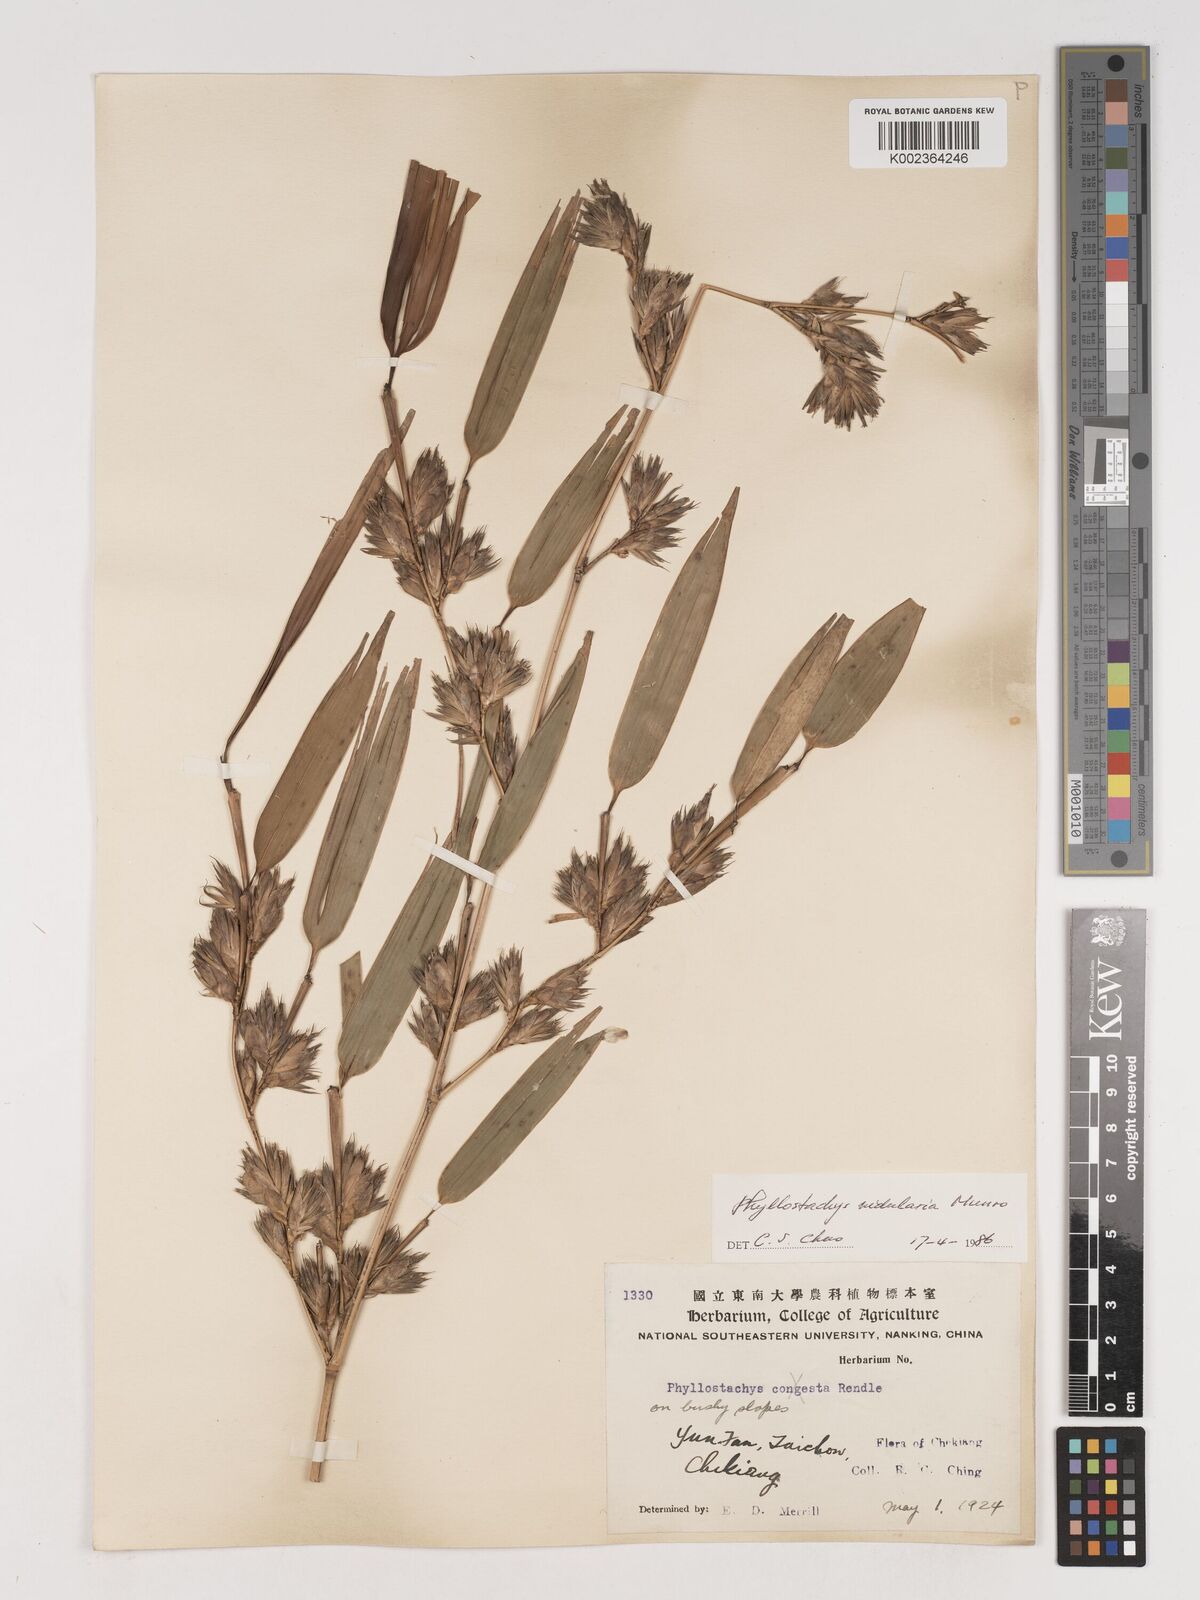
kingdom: Plantae
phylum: Tracheophyta
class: Liliopsida
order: Poales
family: Poaceae
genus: Phyllostachys
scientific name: Phyllostachys nidularia
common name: Broom bamboo
